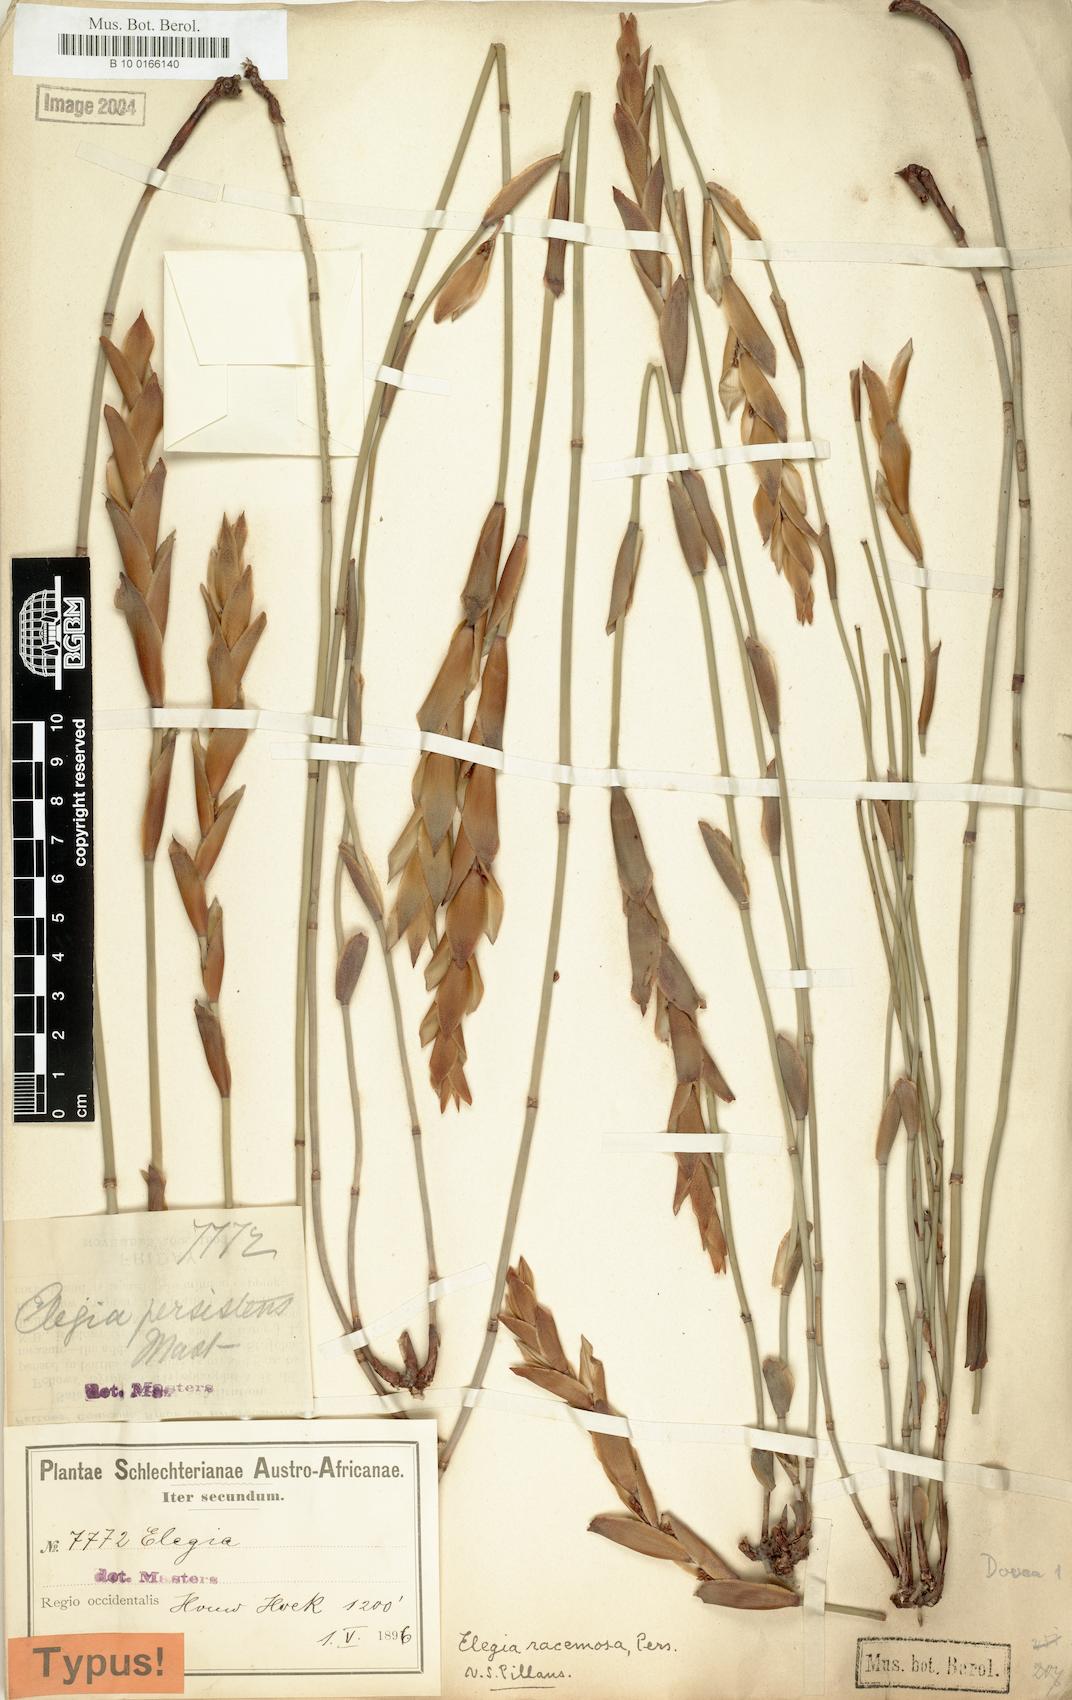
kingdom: Plantae
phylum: Tracheophyta
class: Liliopsida
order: Poales
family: Restionaceae
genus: Elegia
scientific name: Elegia racemosa
